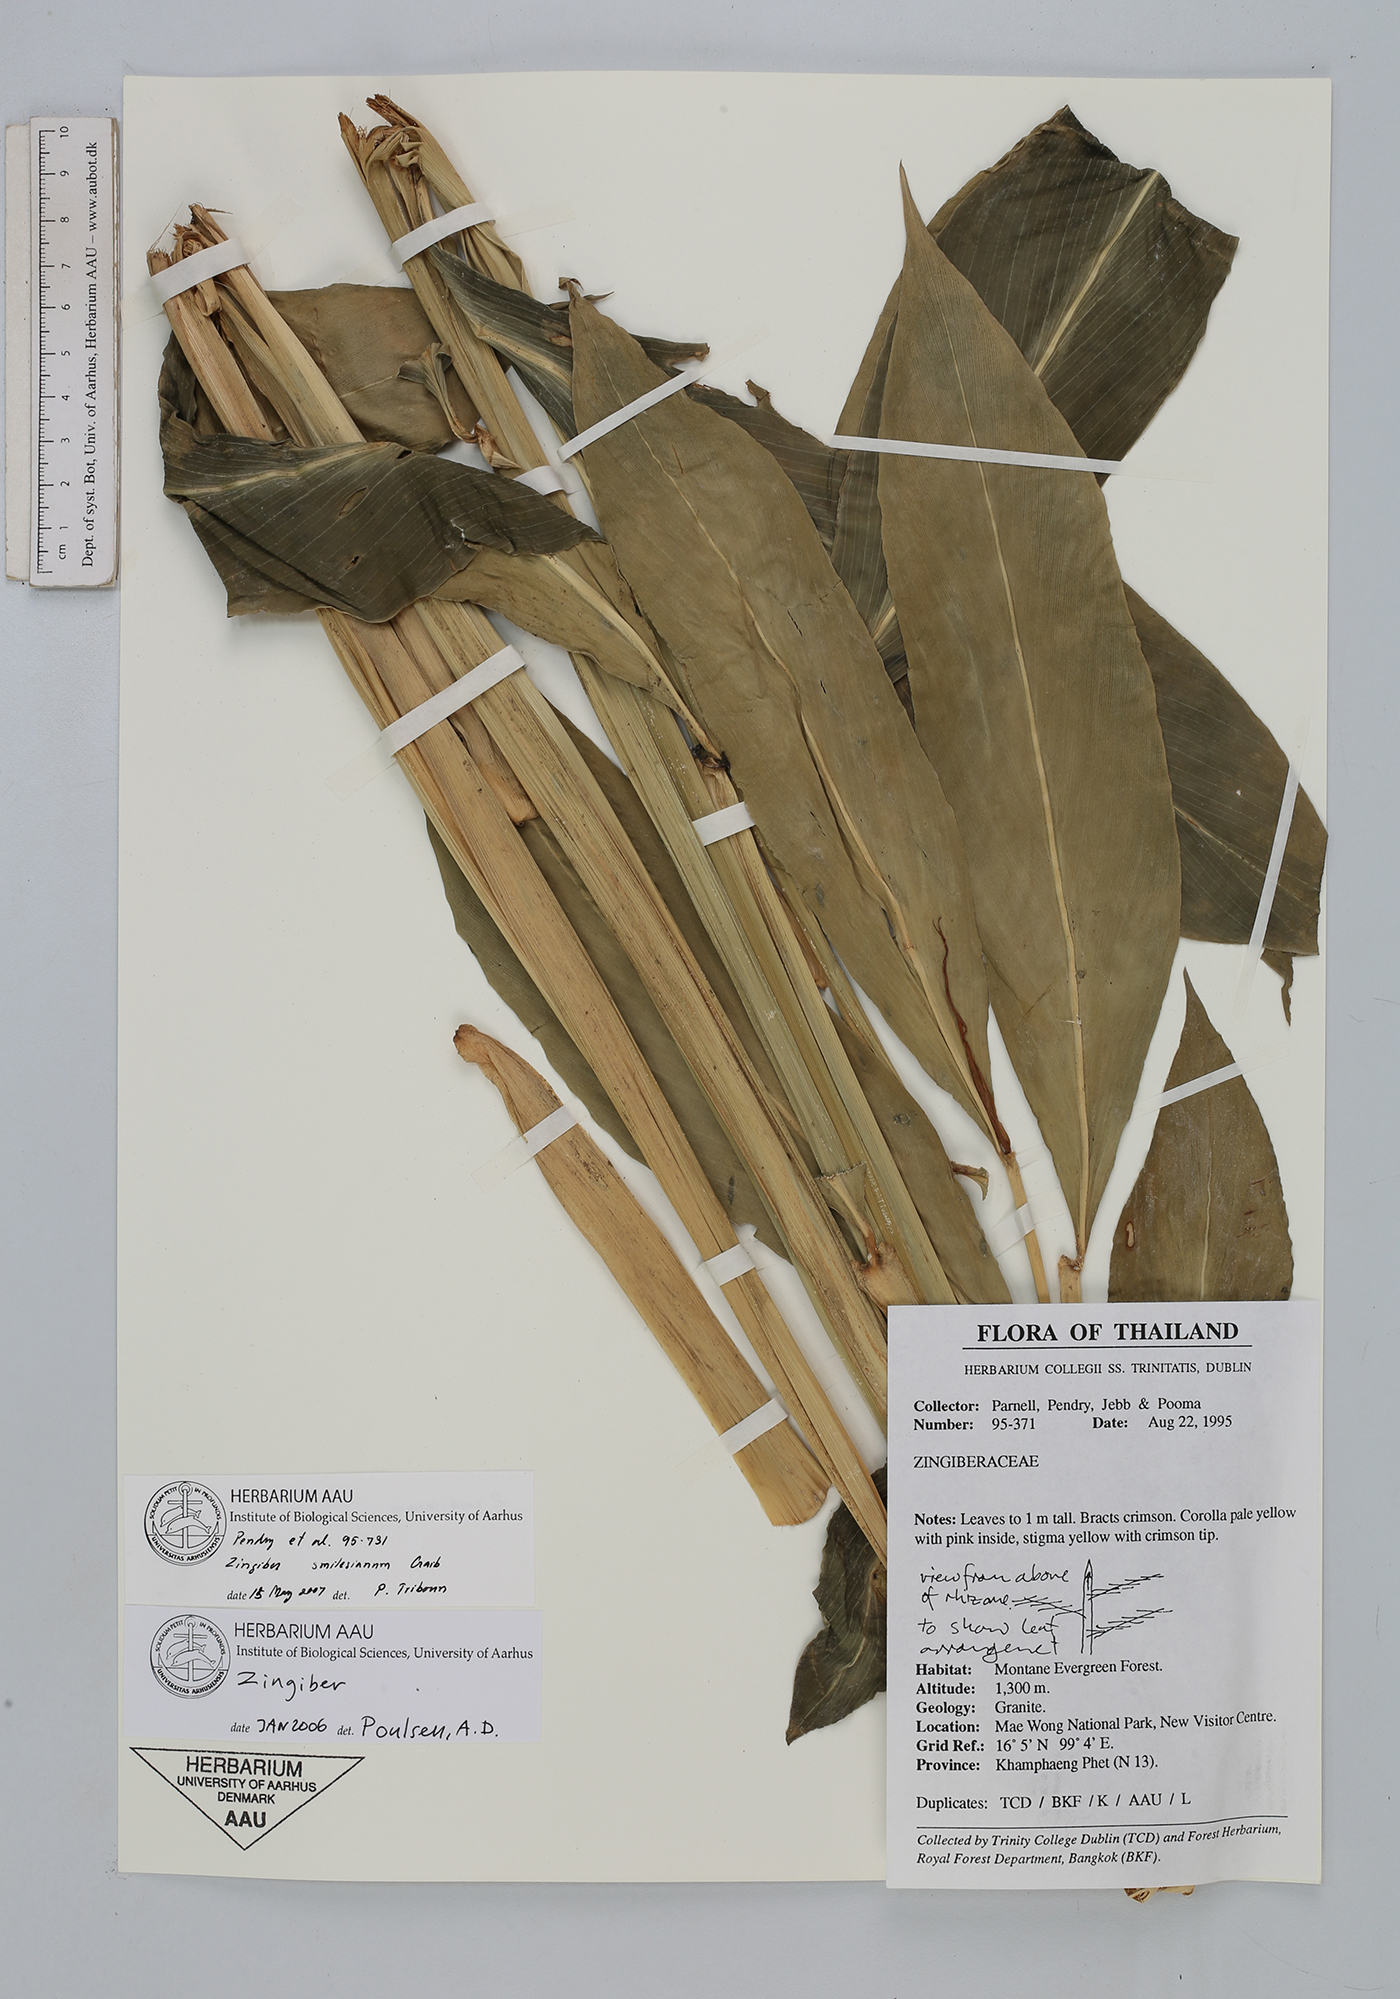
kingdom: Plantae
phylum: Tracheophyta
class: Liliopsida
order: Zingiberales
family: Zingiberaceae
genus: Zingiber
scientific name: Zingiber smilesianum
